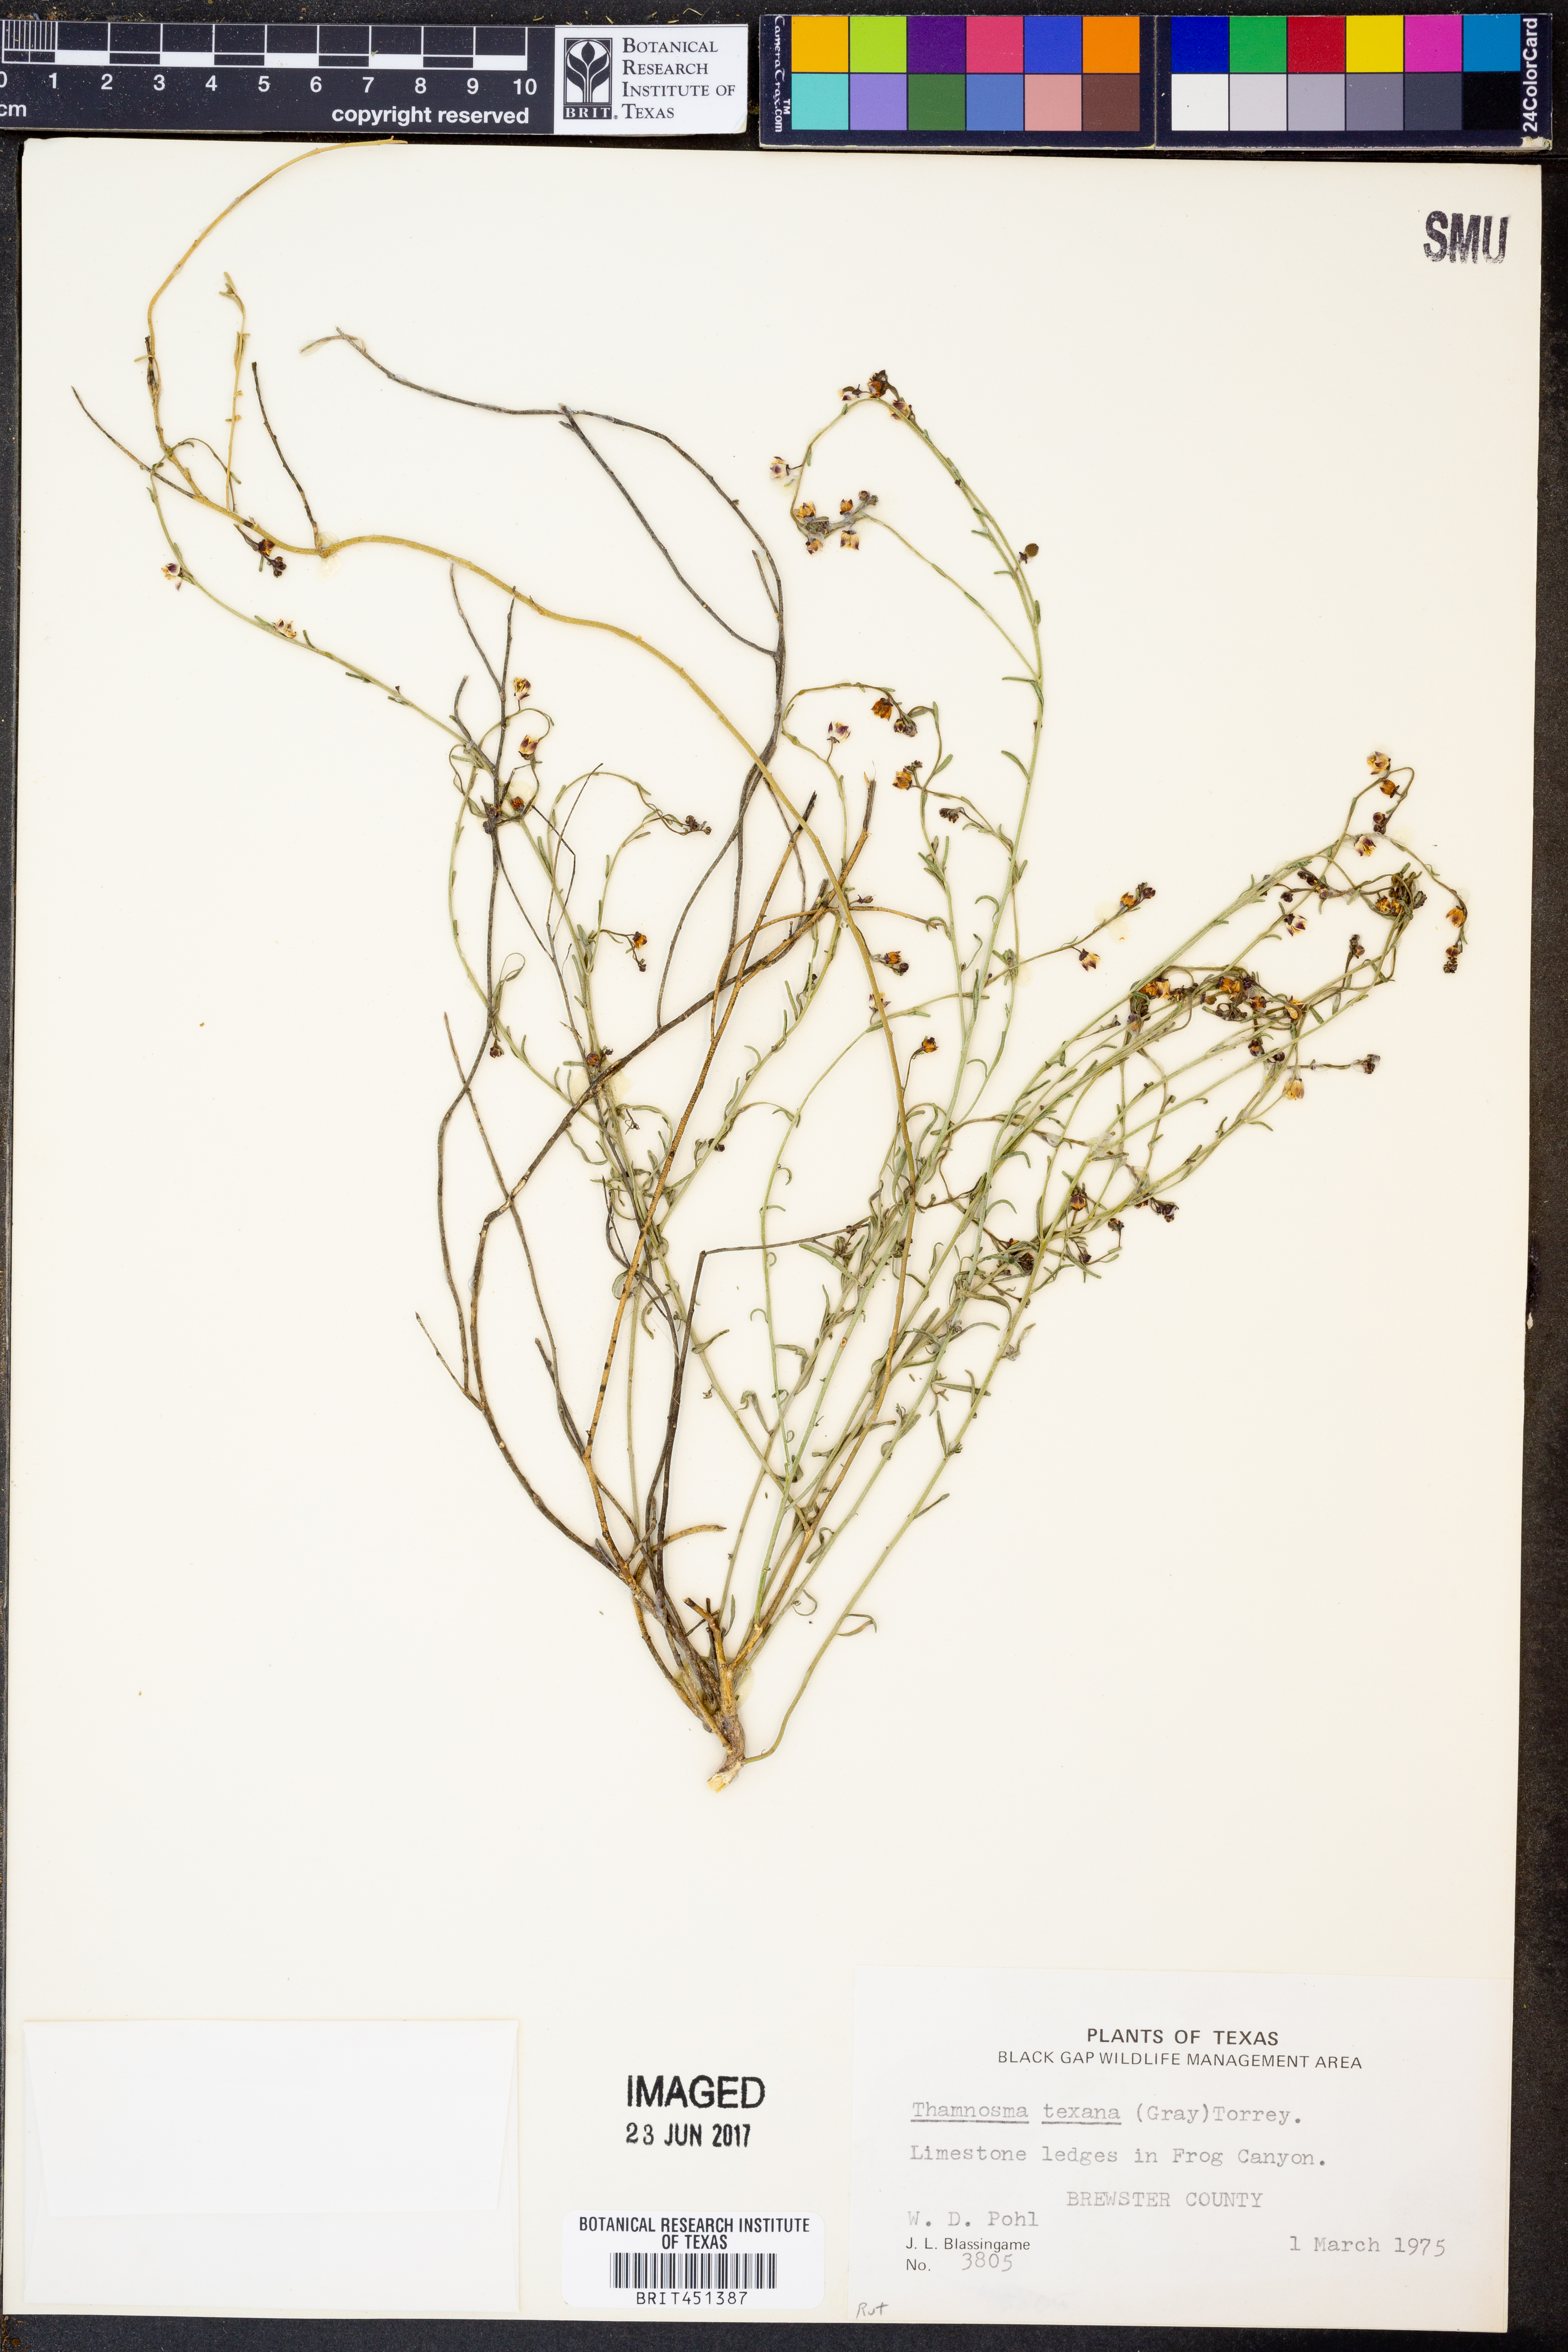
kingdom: Plantae
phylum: Tracheophyta
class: Magnoliopsida
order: Sapindales
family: Rutaceae
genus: Thamnosma
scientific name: Thamnosma texana
